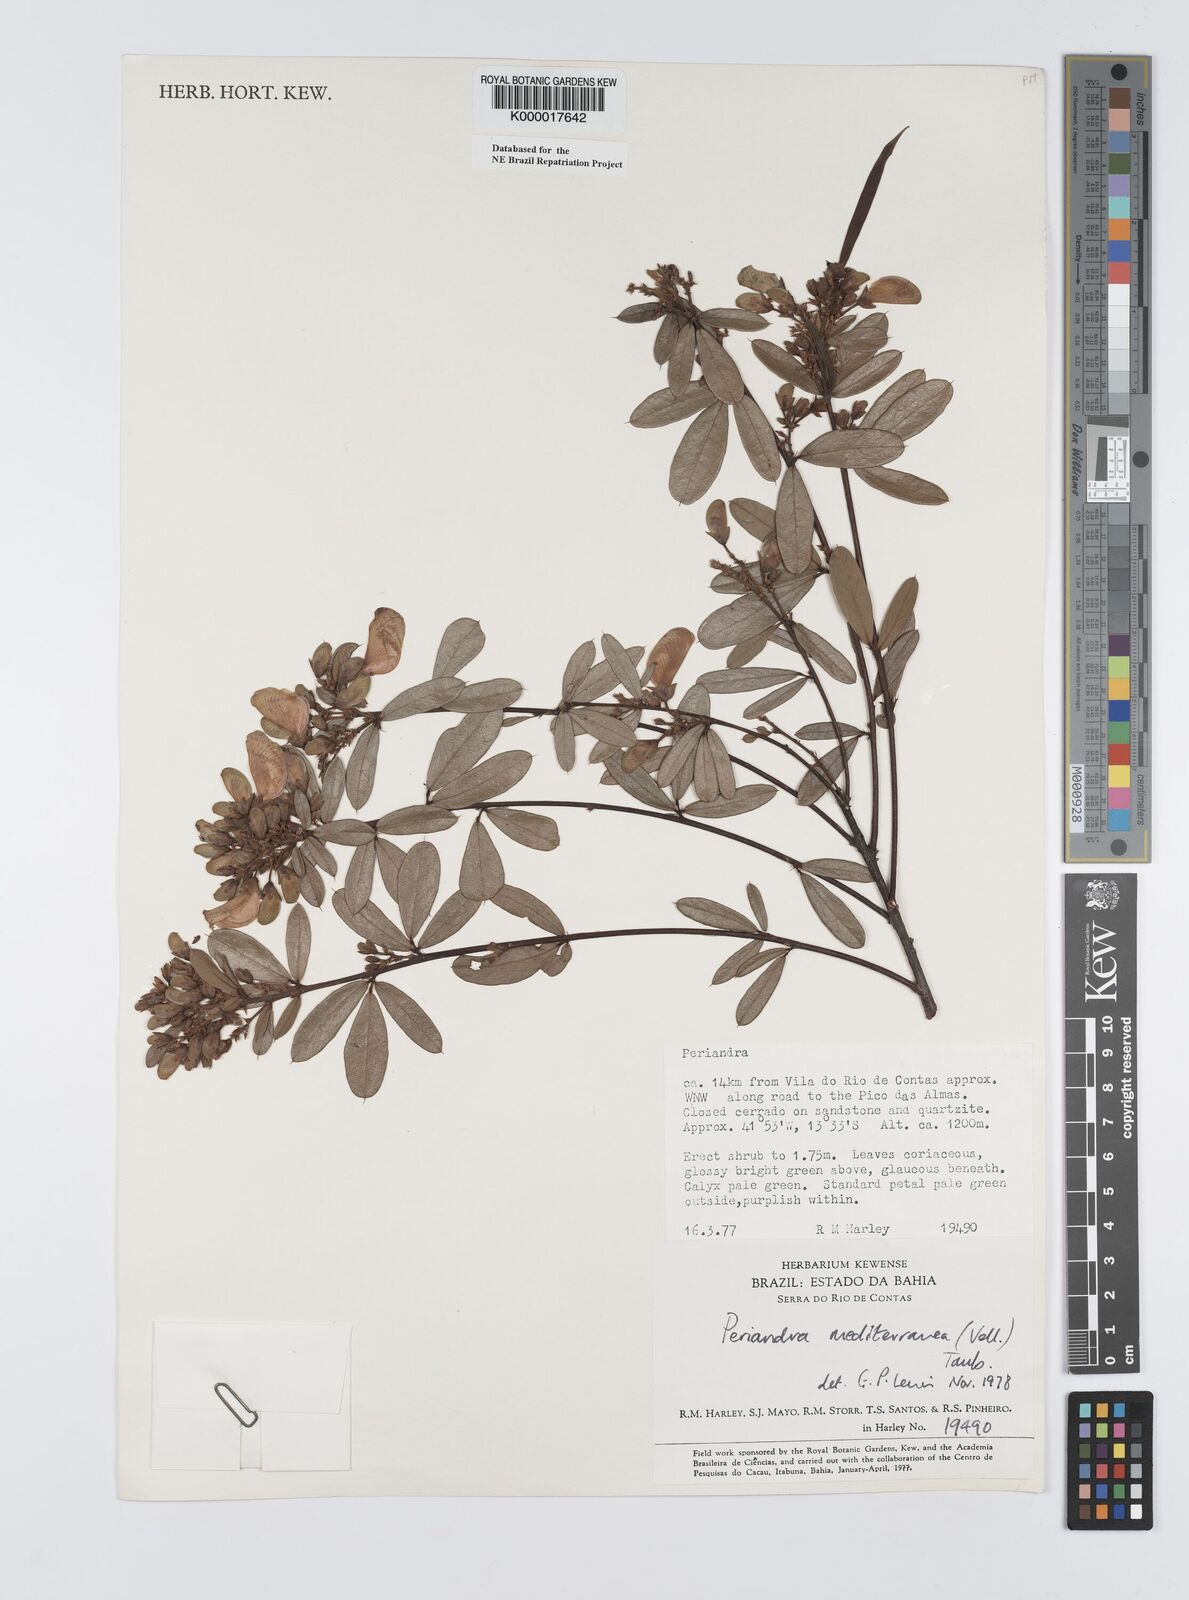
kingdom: Plantae
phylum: Tracheophyta
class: Magnoliopsida
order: Fabales
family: Fabaceae
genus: Periandra
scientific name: Periandra mediterranea
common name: Brazilian licorice
